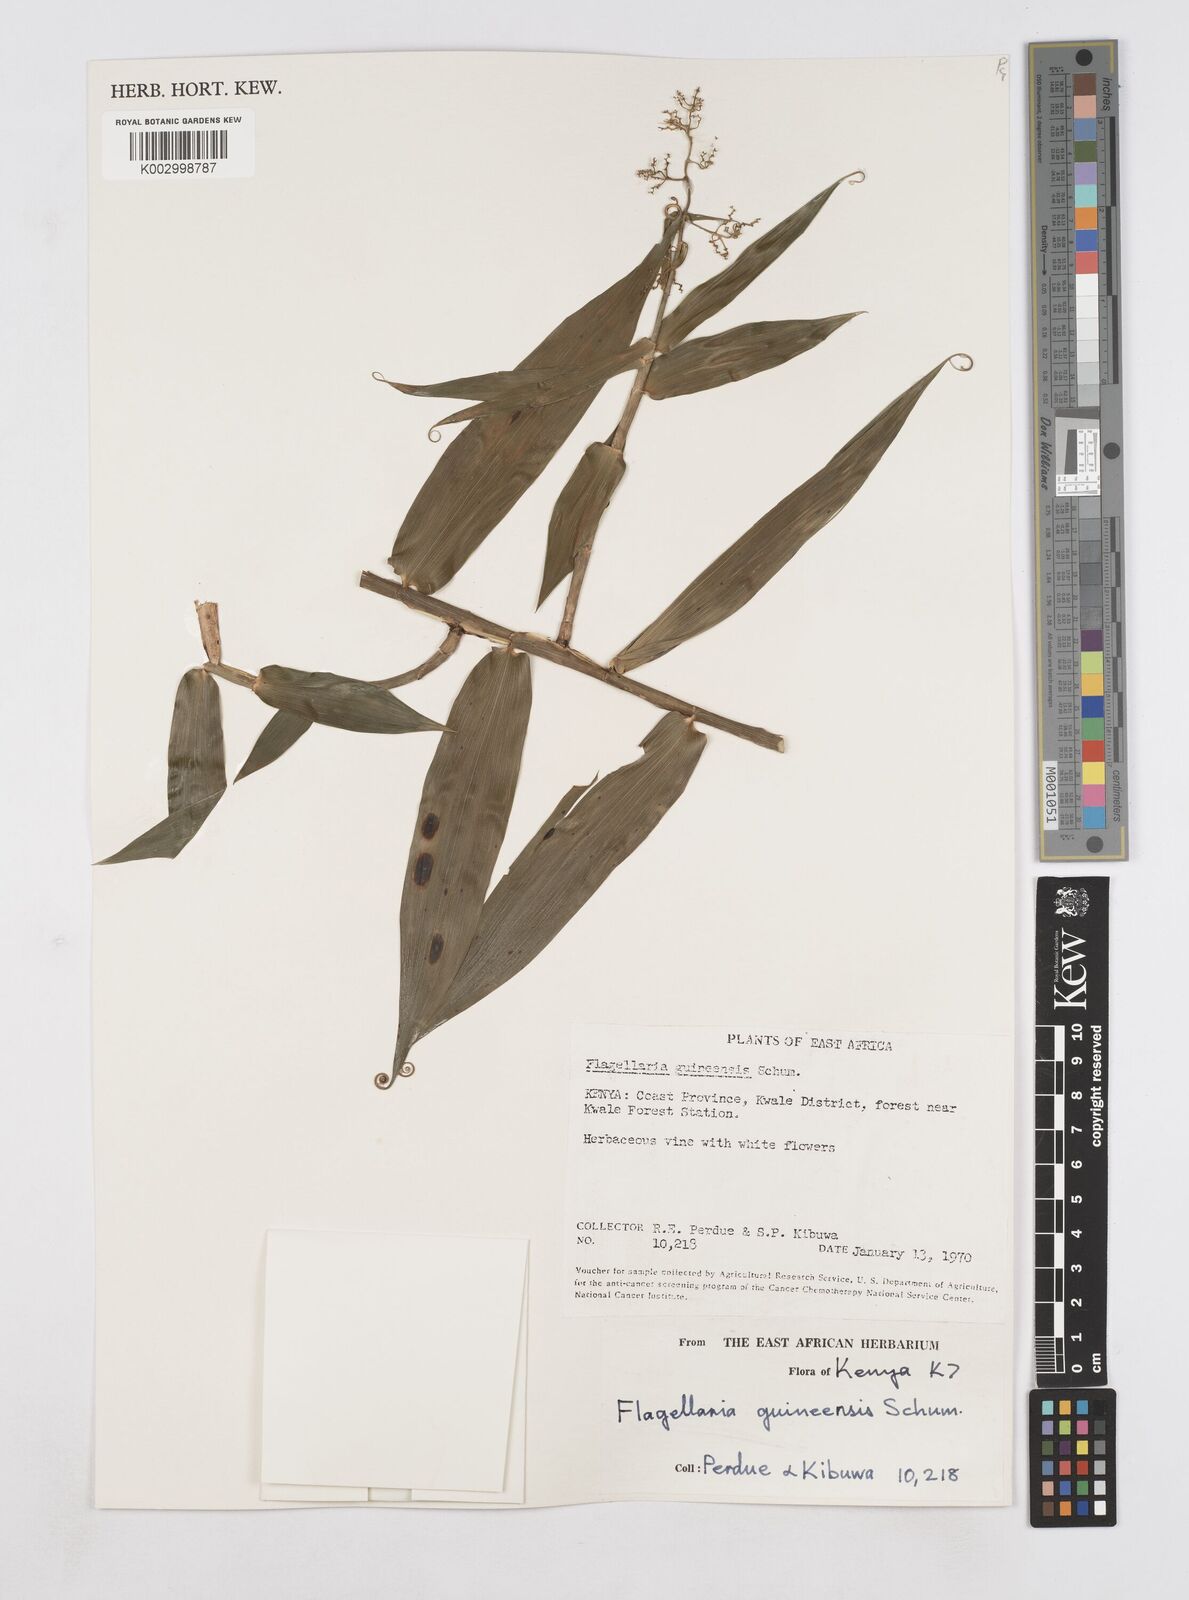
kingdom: Plantae
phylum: Tracheophyta
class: Liliopsida
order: Poales
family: Flagellariaceae
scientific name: Flagellariaceae
